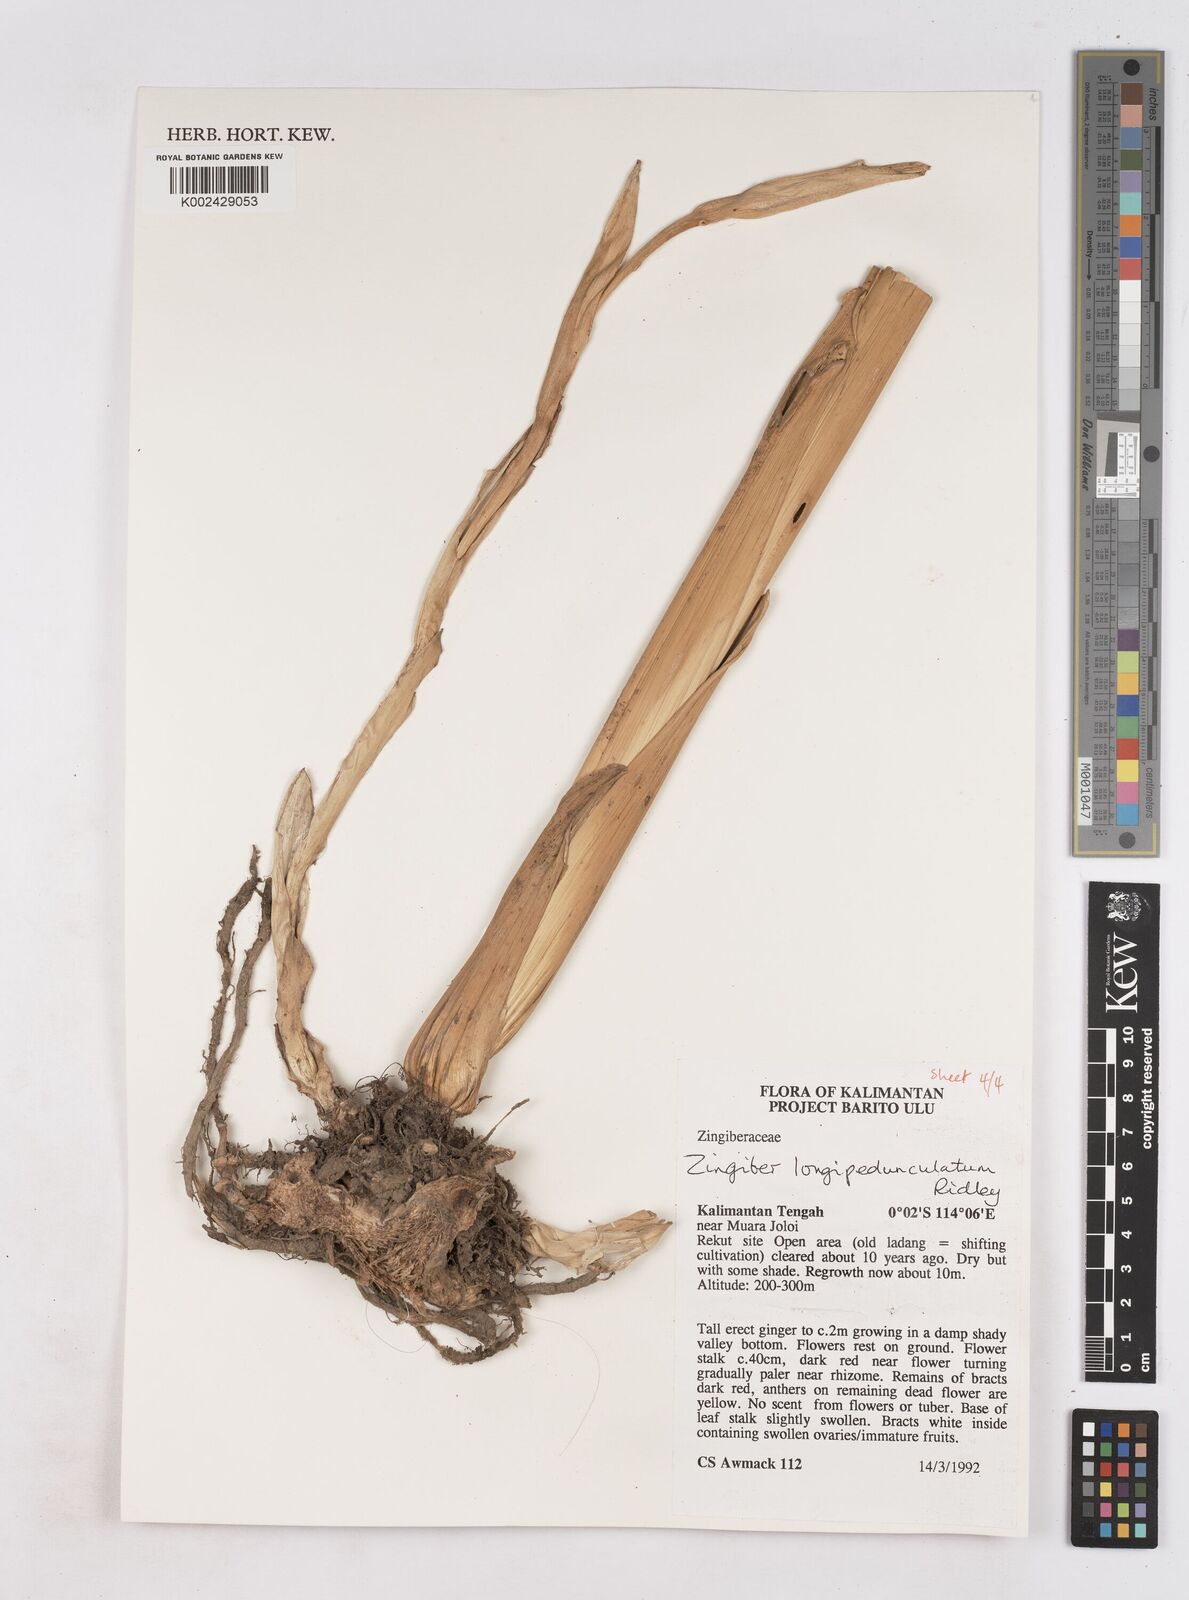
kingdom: Plantae
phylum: Tracheophyta
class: Liliopsida
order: Zingiberales
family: Zingiberaceae
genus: Zingiber
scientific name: Zingiber longipedunculatum
